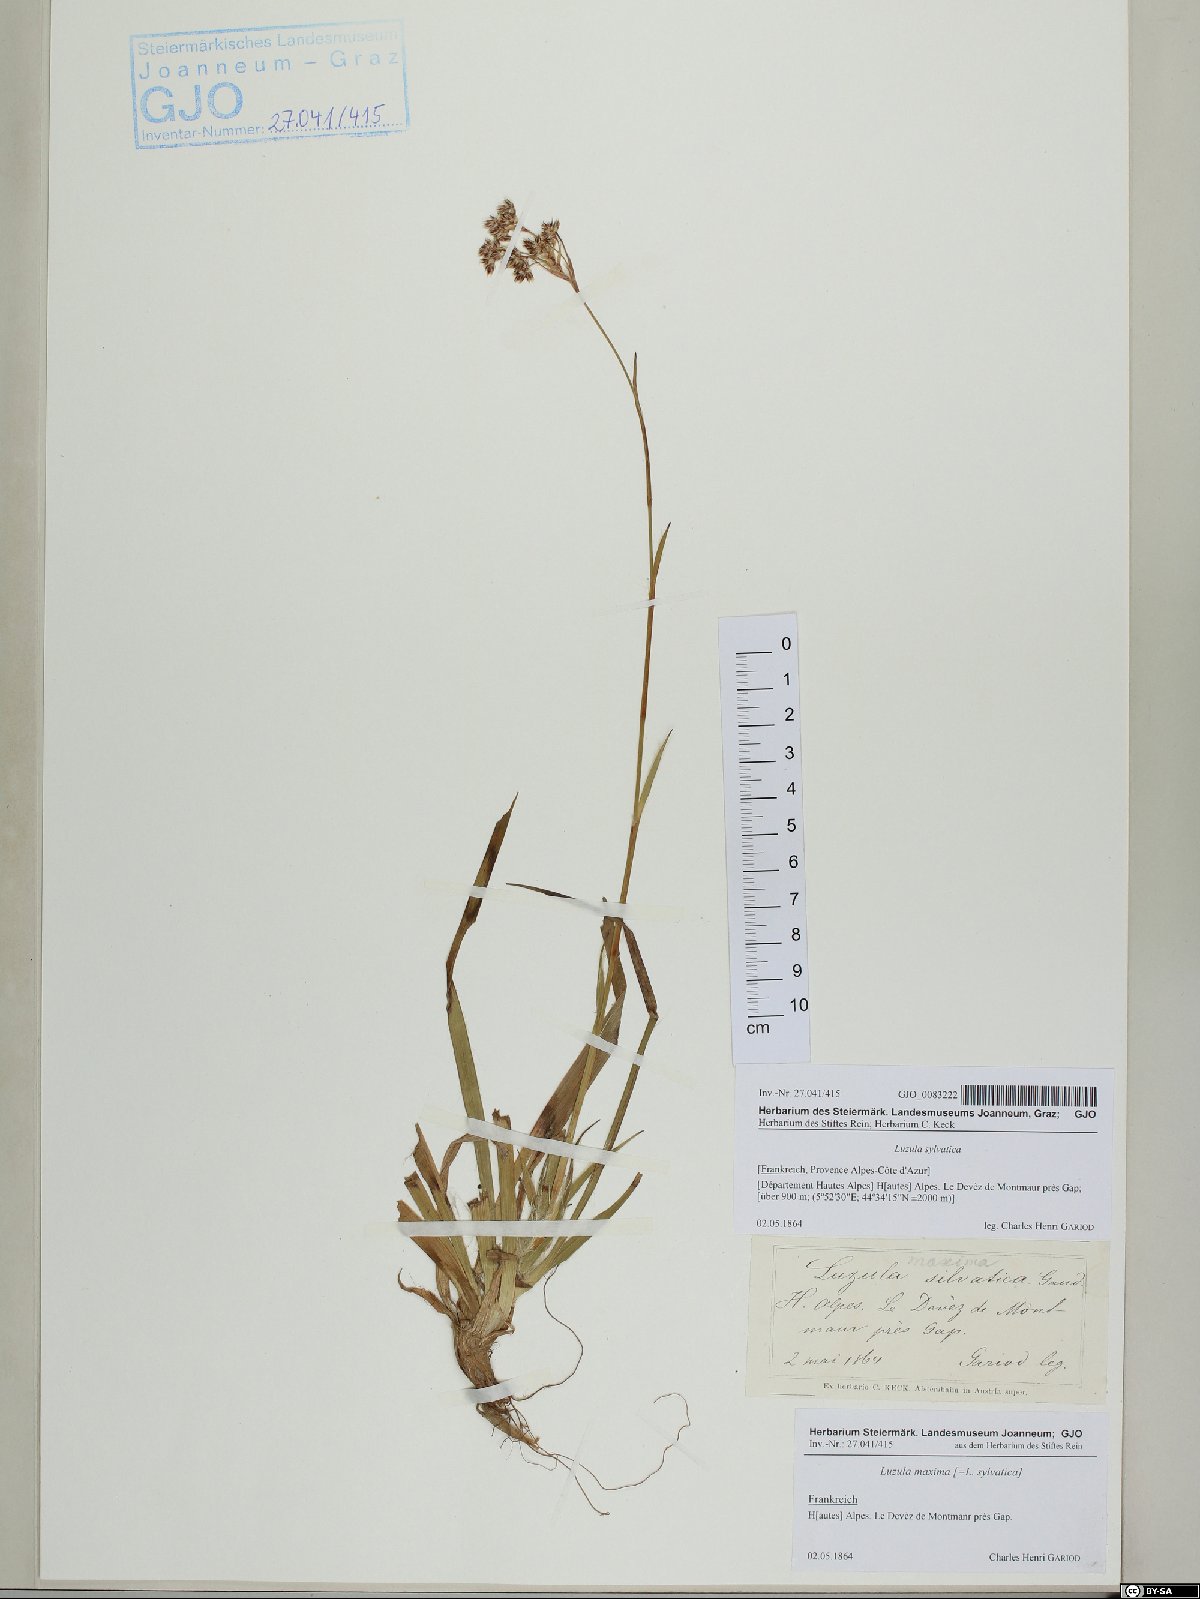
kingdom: Plantae
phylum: Tracheophyta
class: Liliopsida
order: Poales
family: Juncaceae
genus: Luzula
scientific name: Luzula sylvatica
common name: Great wood-rush
